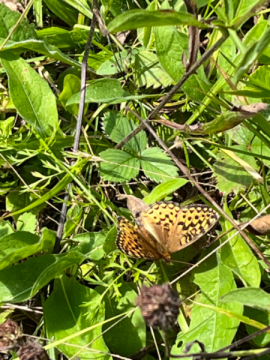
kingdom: Animalia
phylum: Arthropoda
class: Insecta
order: Lepidoptera
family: Nymphalidae
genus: Speyeria
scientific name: Speyeria atlantis
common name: Atlantis Fritillary
